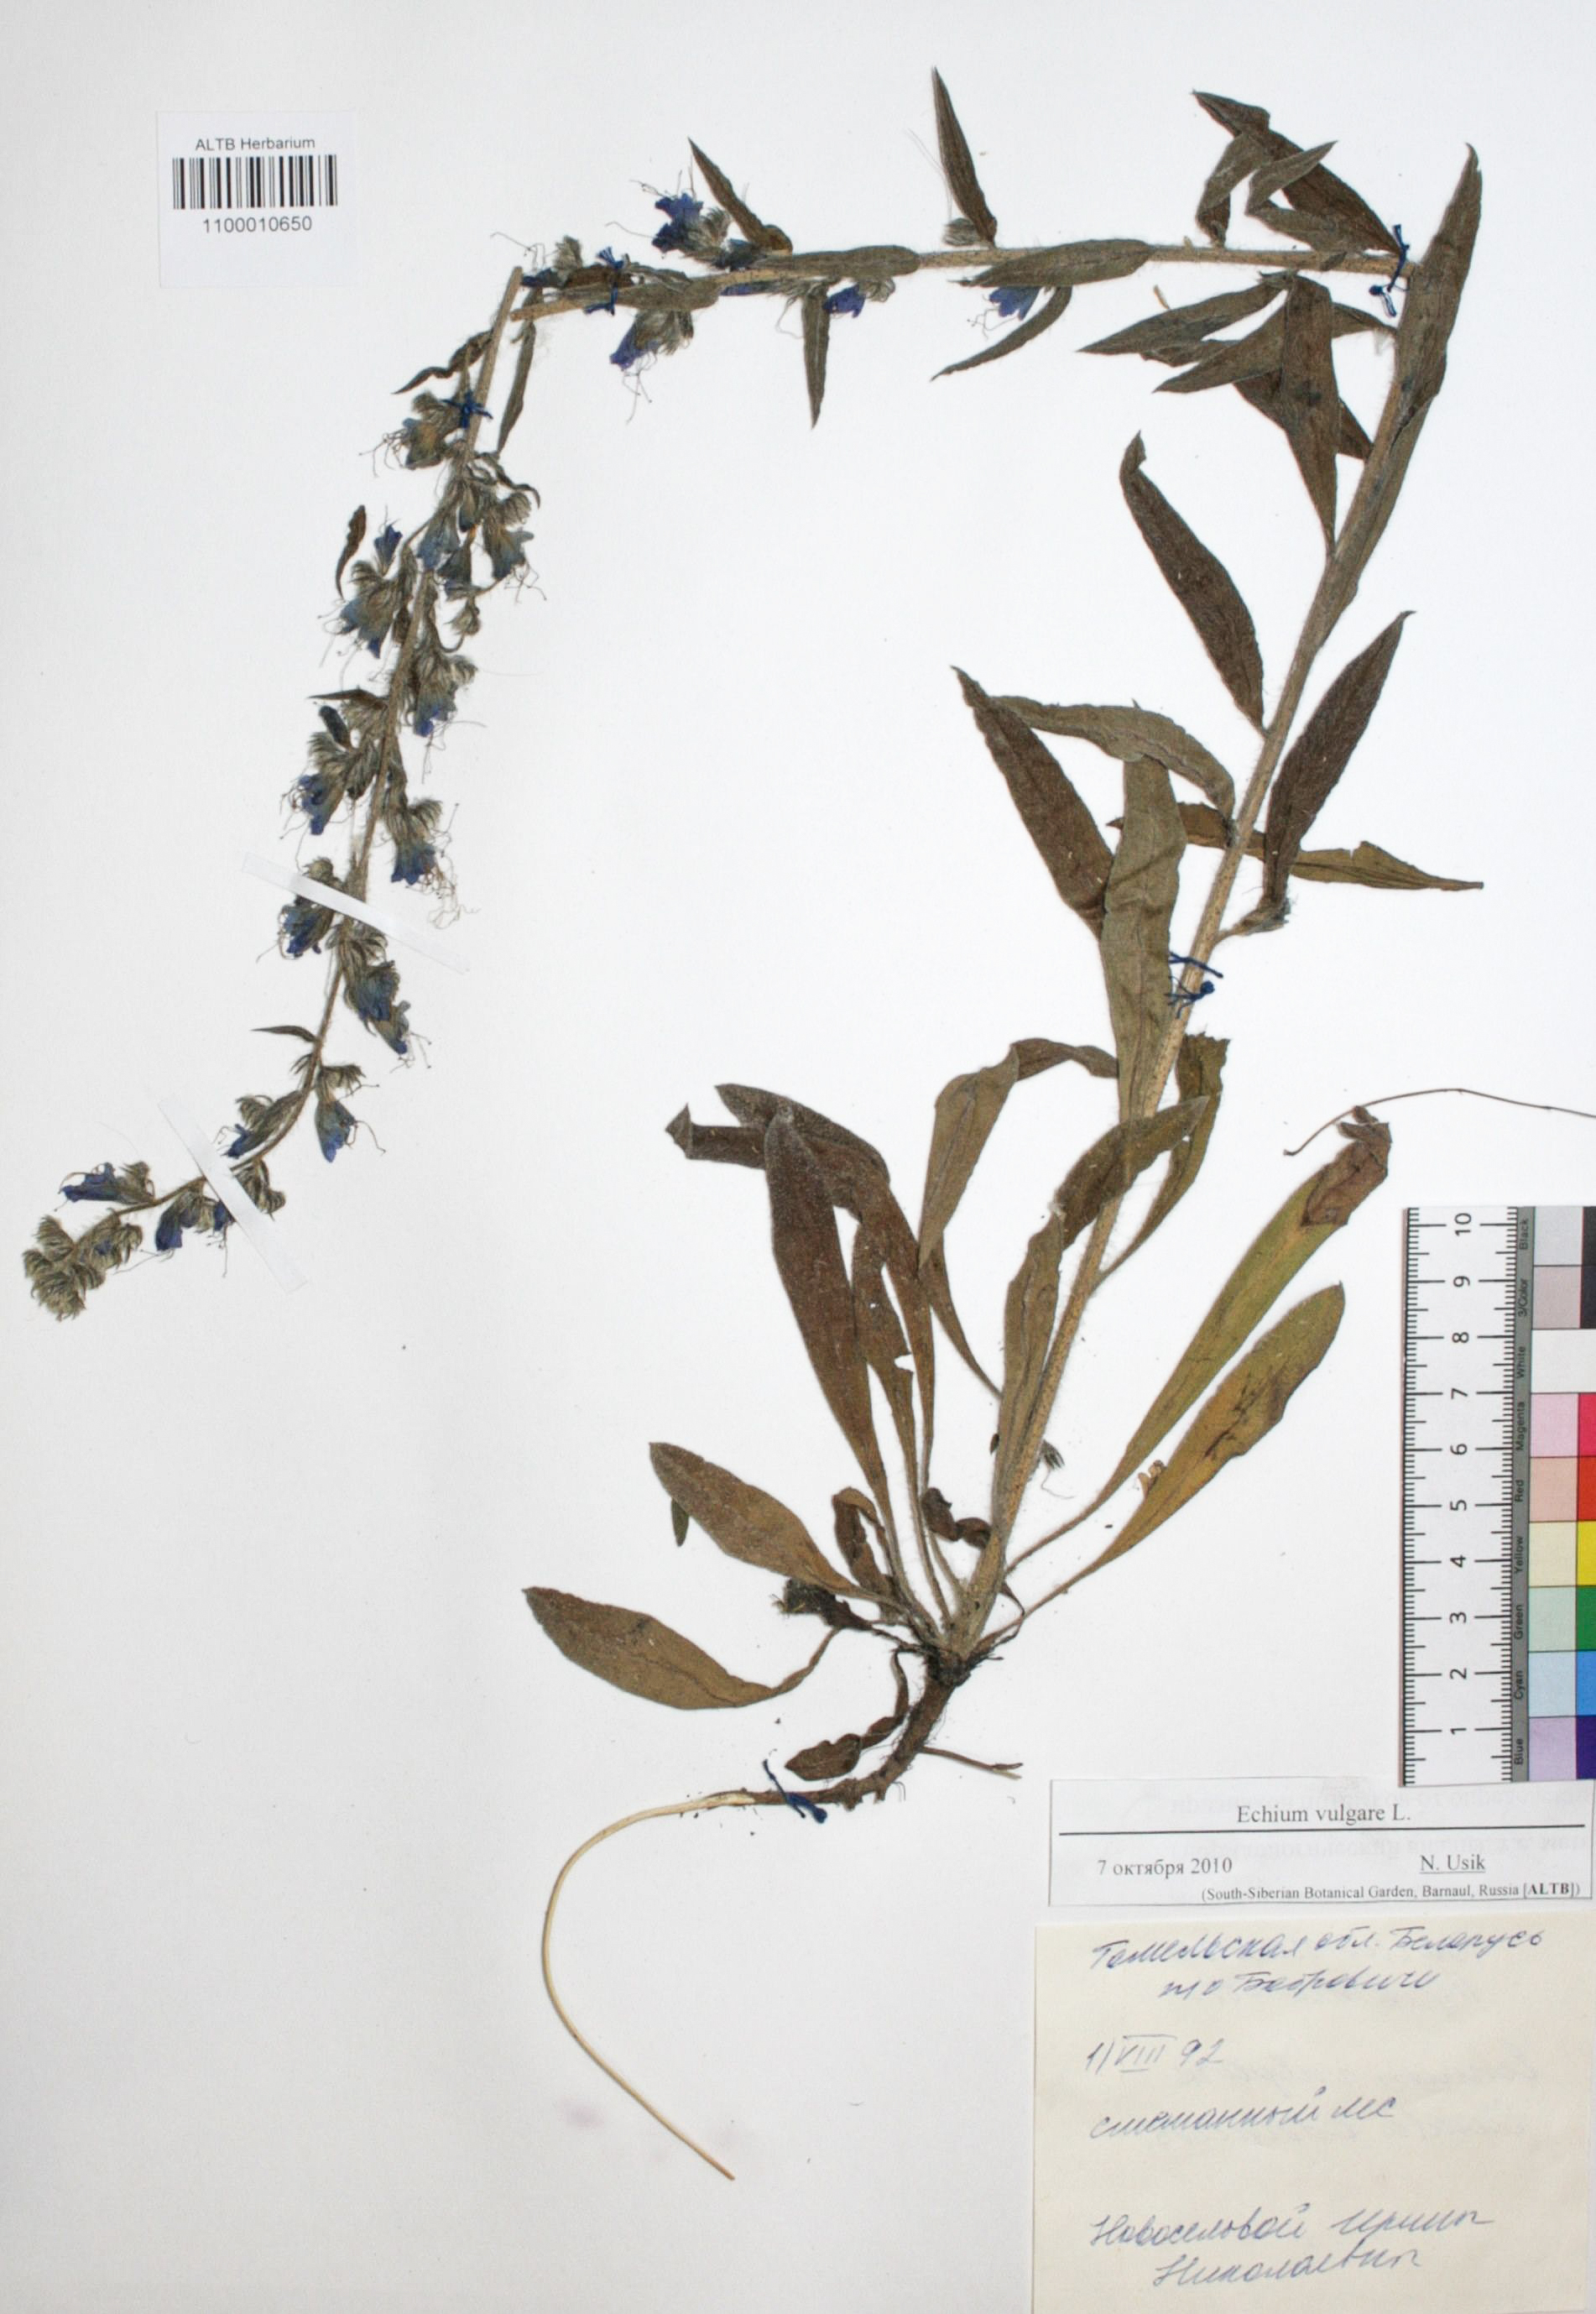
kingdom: Plantae
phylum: Tracheophyta
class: Magnoliopsida
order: Boraginales
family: Boraginaceae
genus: Echium
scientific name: Echium vulgare
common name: Common viper's bugloss
